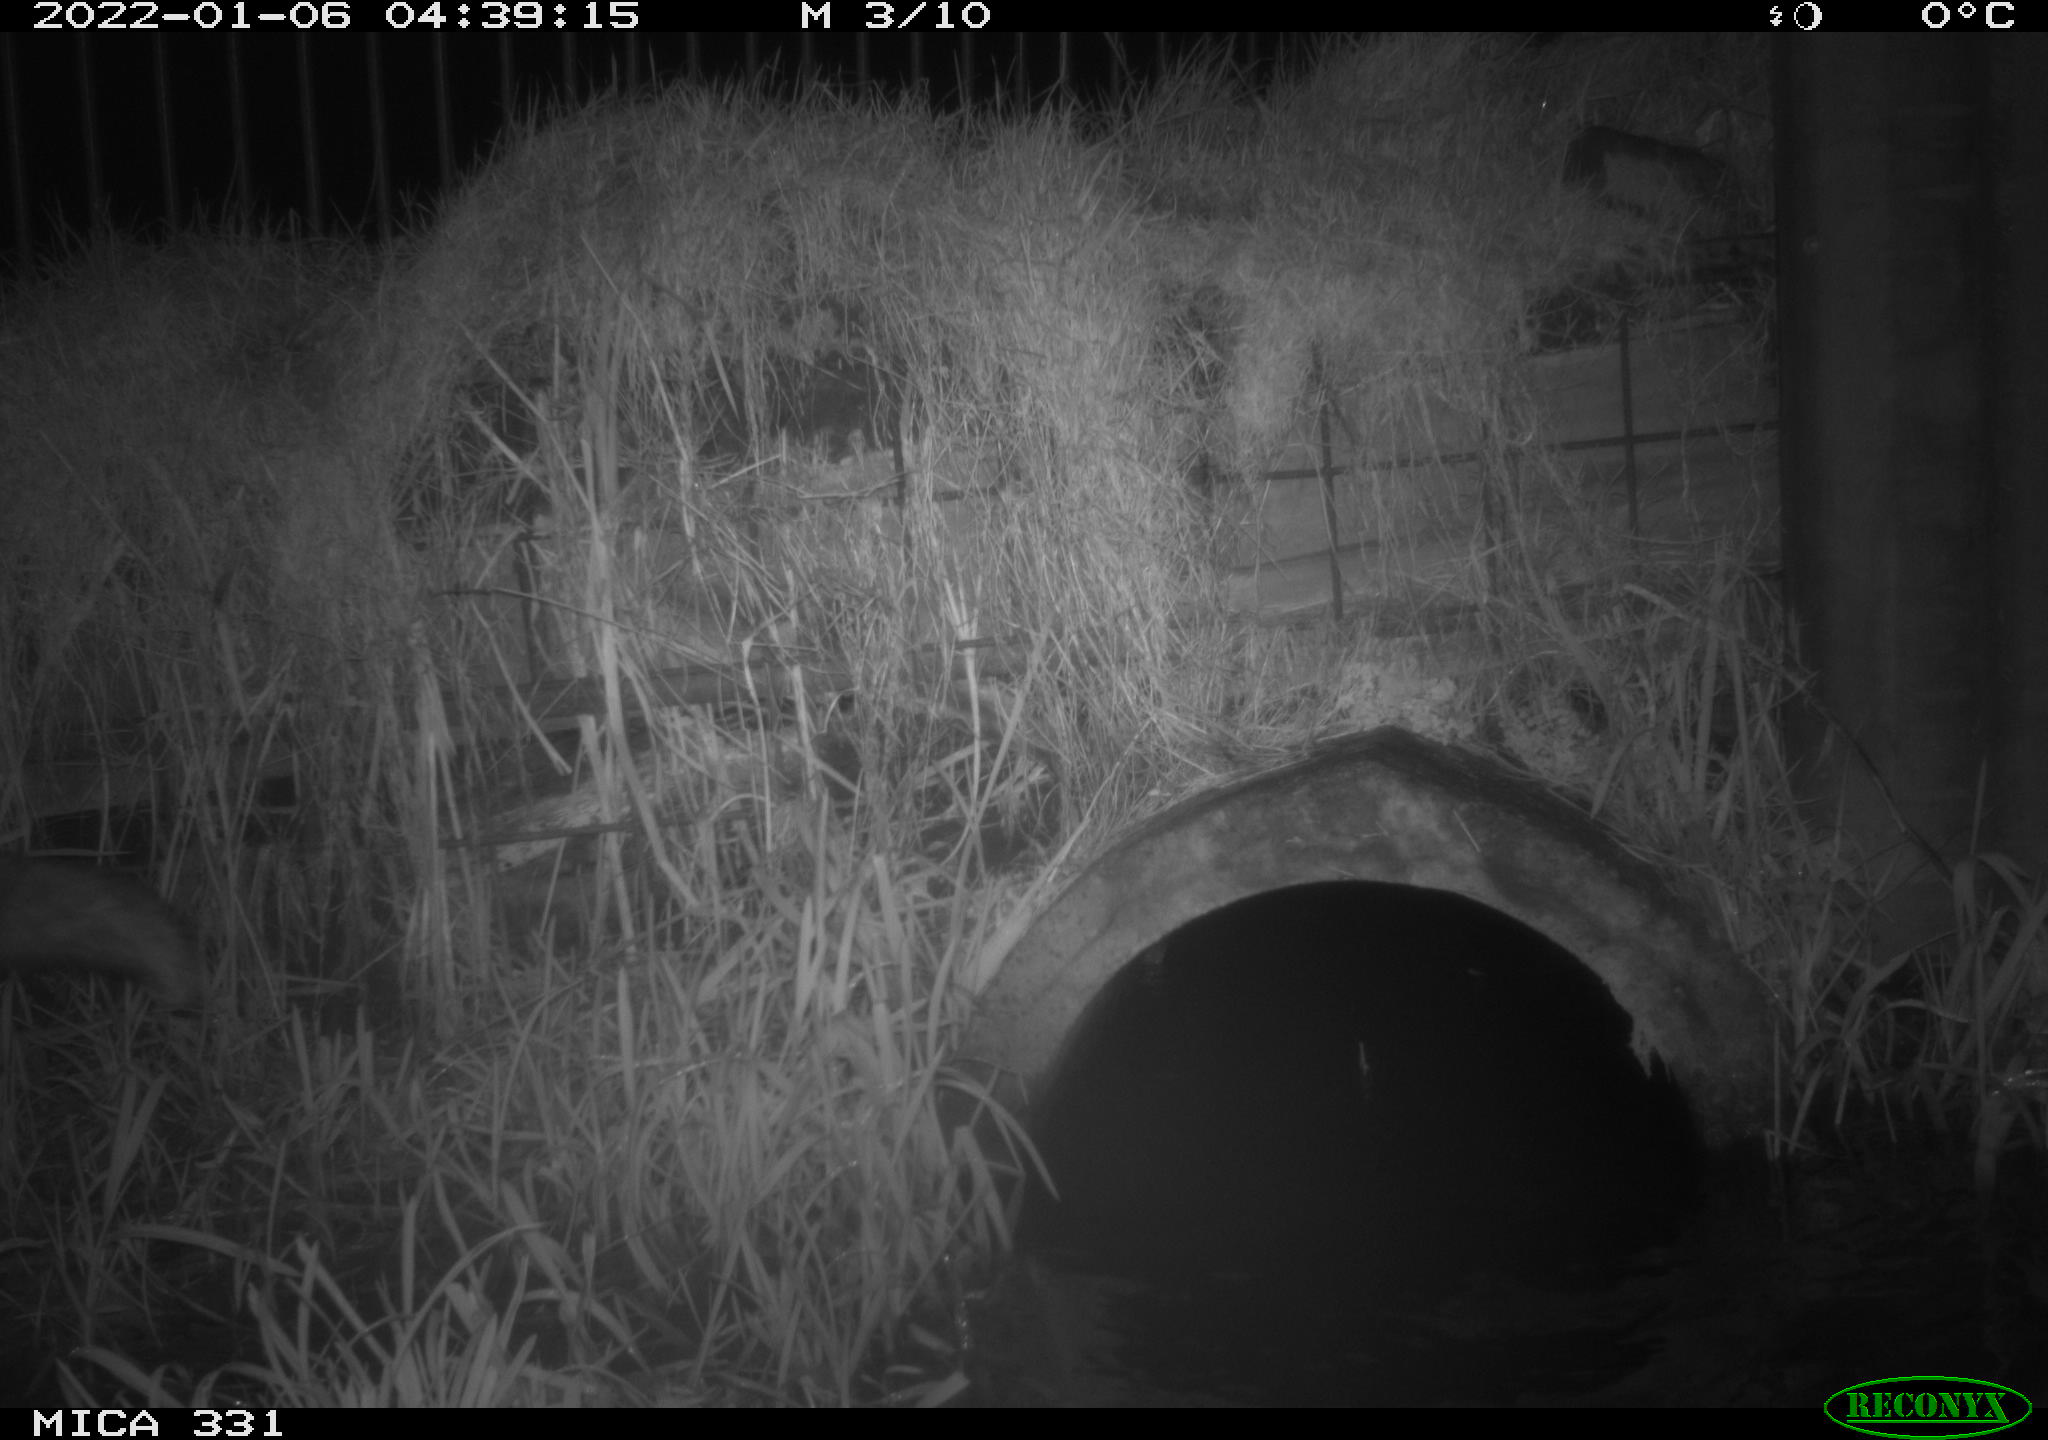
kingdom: Animalia
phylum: Chordata
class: Mammalia
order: Carnivora
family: Canidae
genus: Vulpes
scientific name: Vulpes vulpes
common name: Red fox
